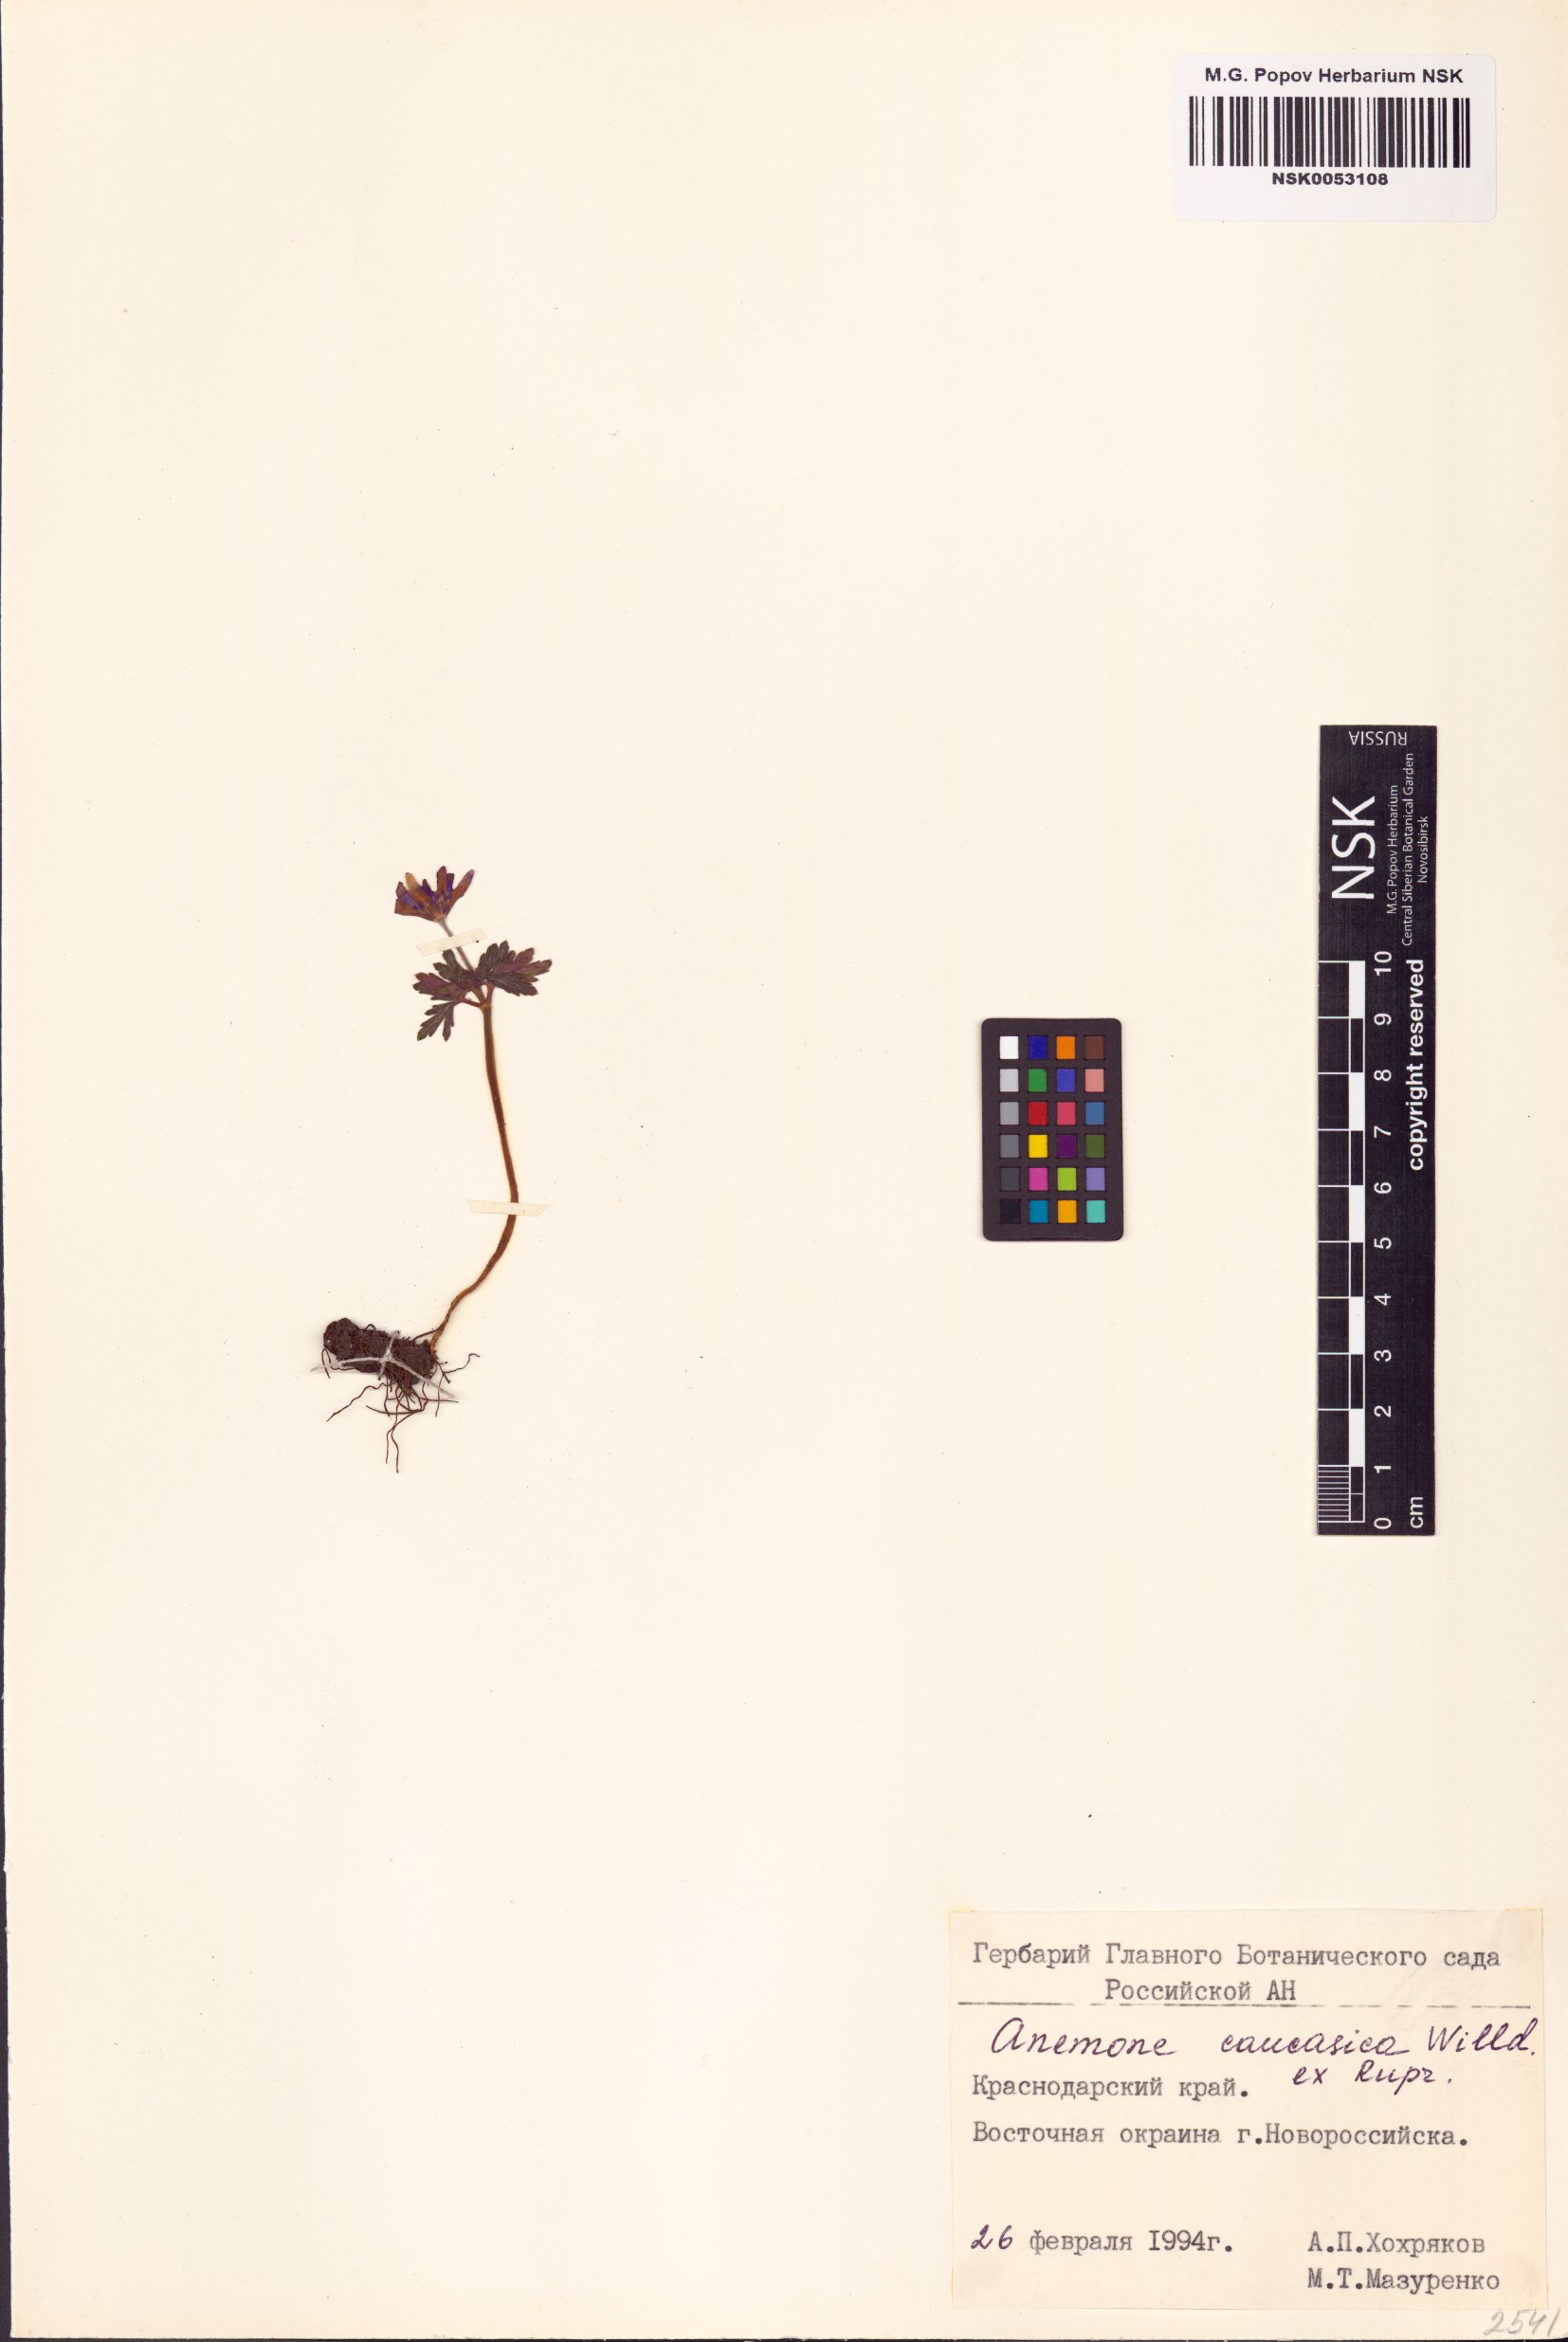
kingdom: Plantae
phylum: Tracheophyta
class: Magnoliopsida
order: Ranunculales
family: Ranunculaceae
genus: Anemone
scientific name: Anemone caucasica
